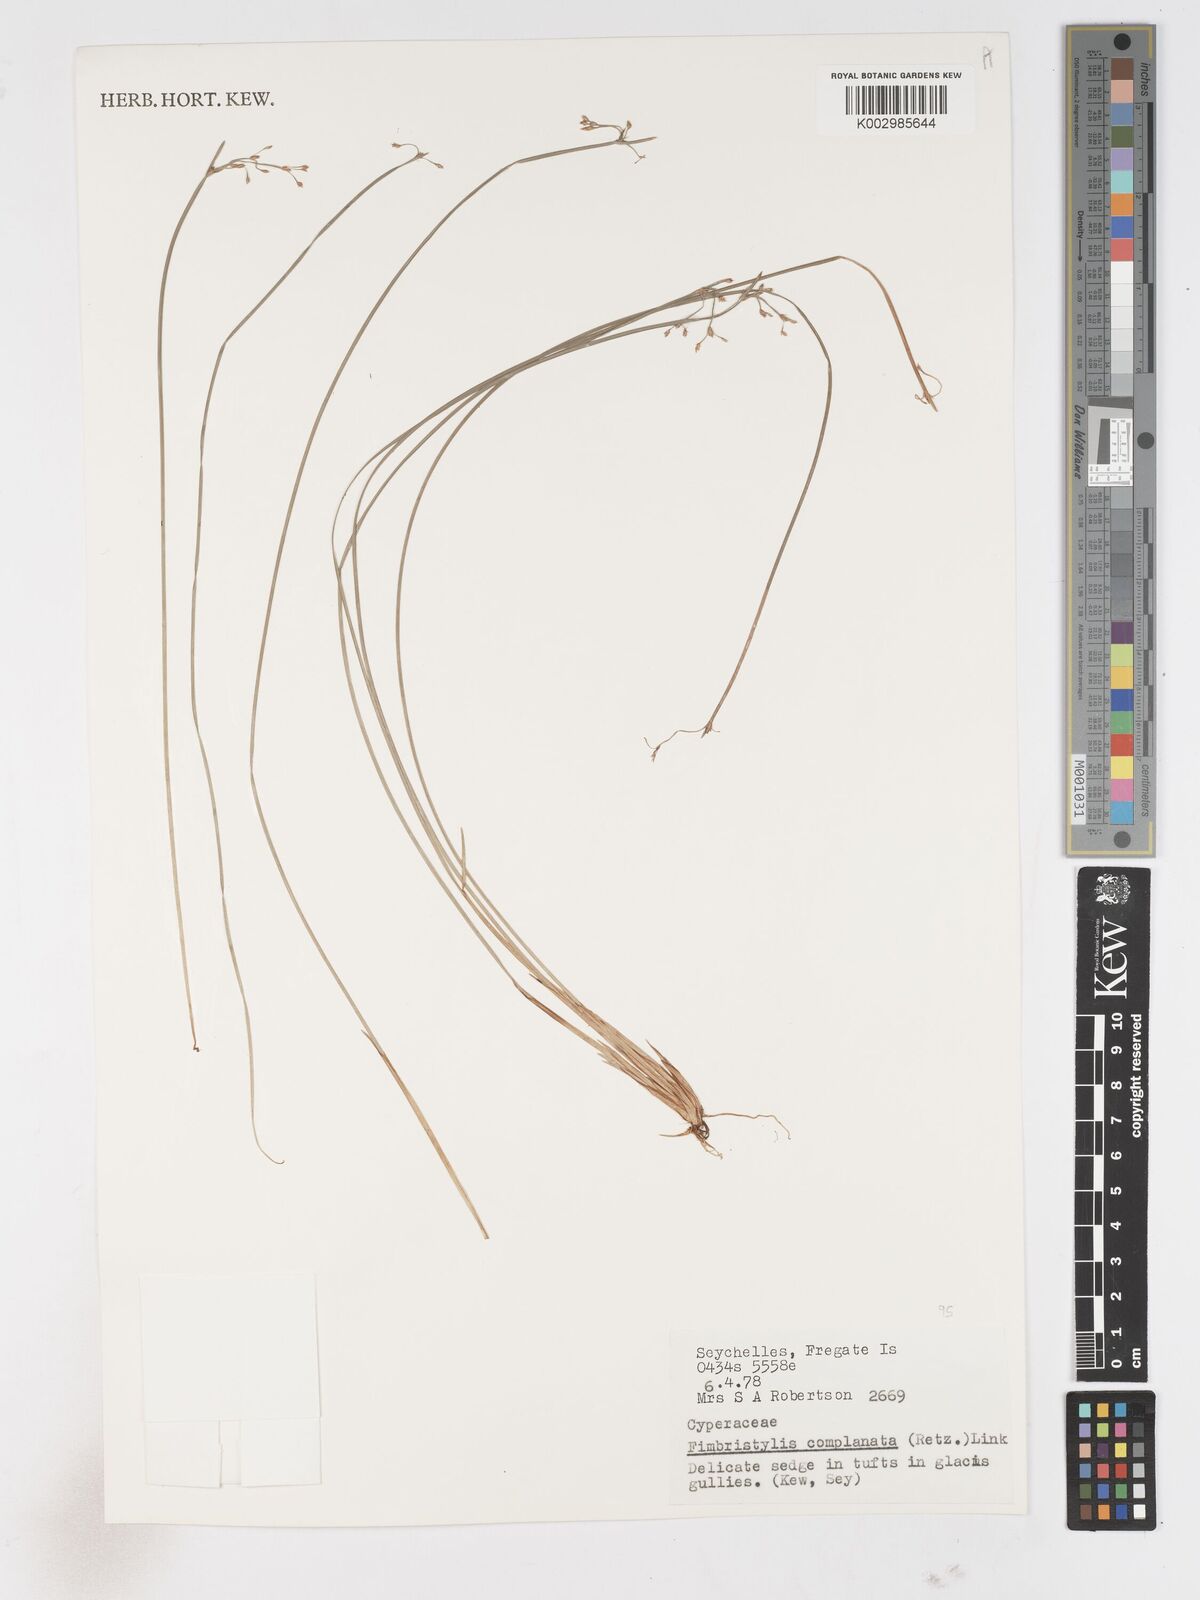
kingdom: Plantae
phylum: Tracheophyta
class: Liliopsida
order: Poales
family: Cyperaceae
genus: Fimbristylis
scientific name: Fimbristylis complanata
